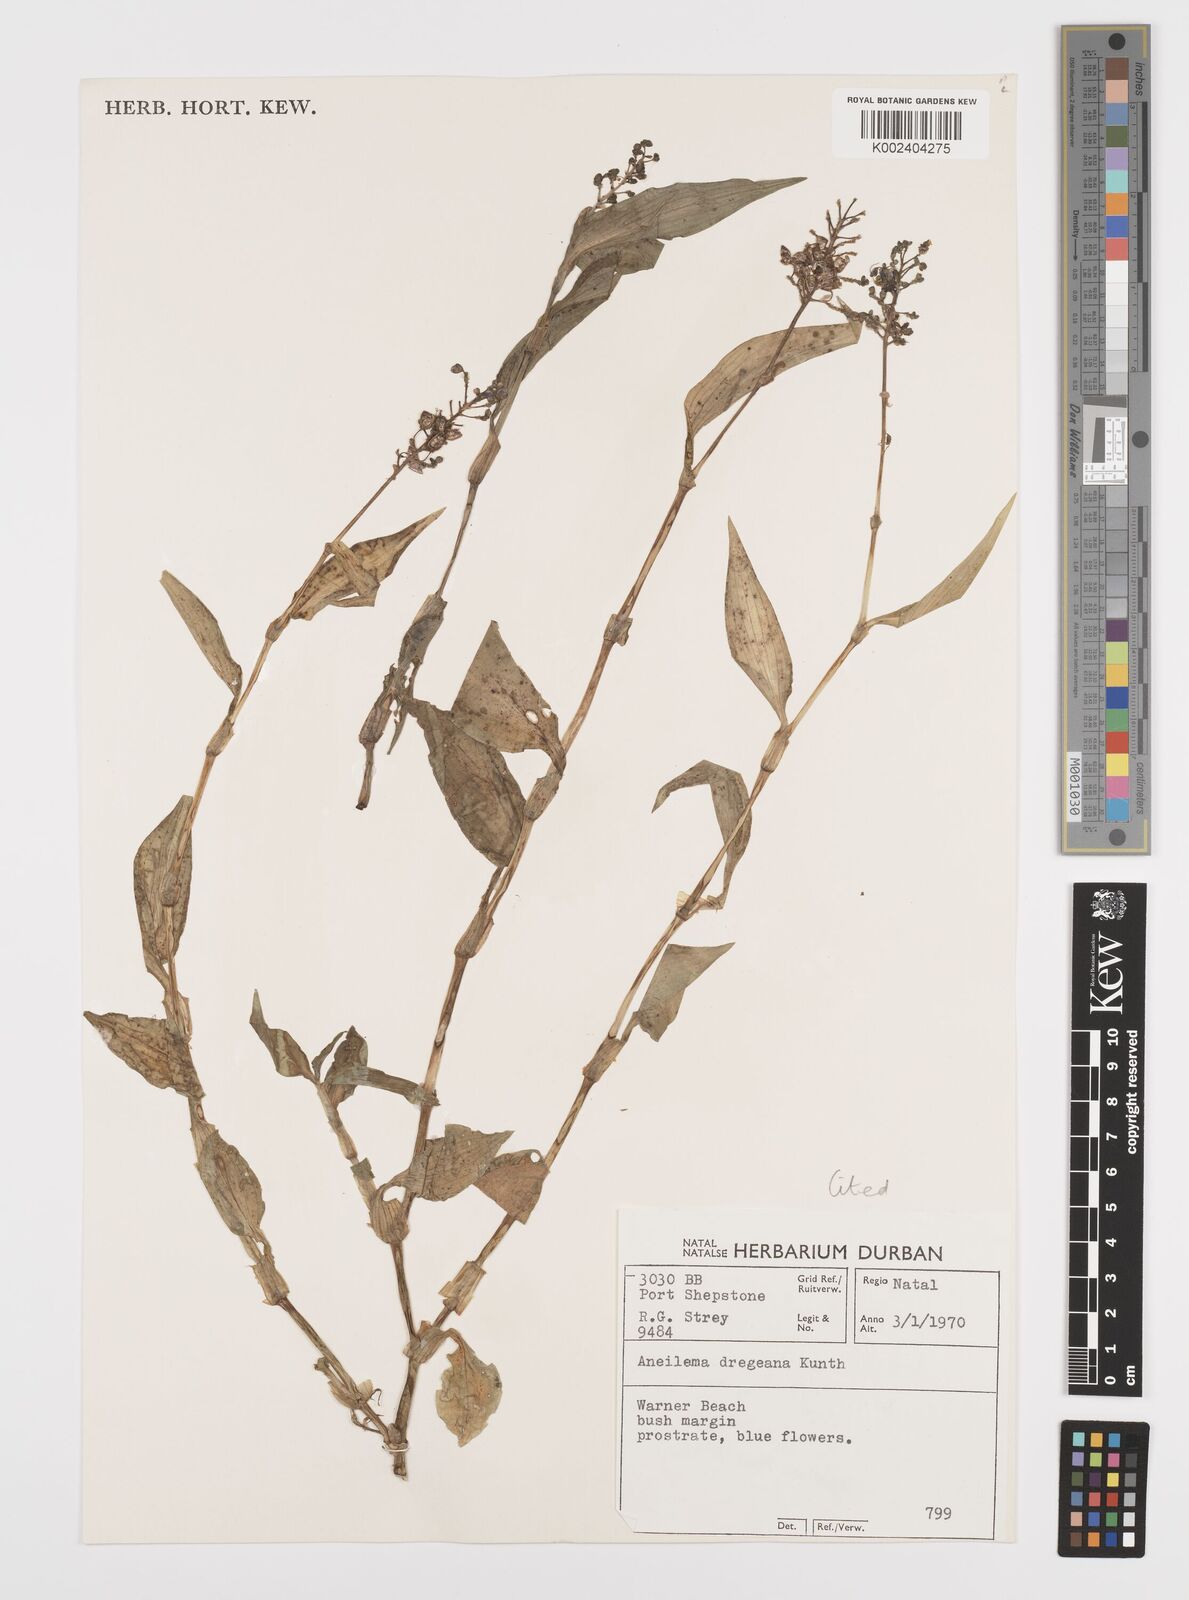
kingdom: Plantae
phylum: Tracheophyta
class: Liliopsida
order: Commelinales
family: Commelinaceae
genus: Aneilema
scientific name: Aneilema dregeanum
